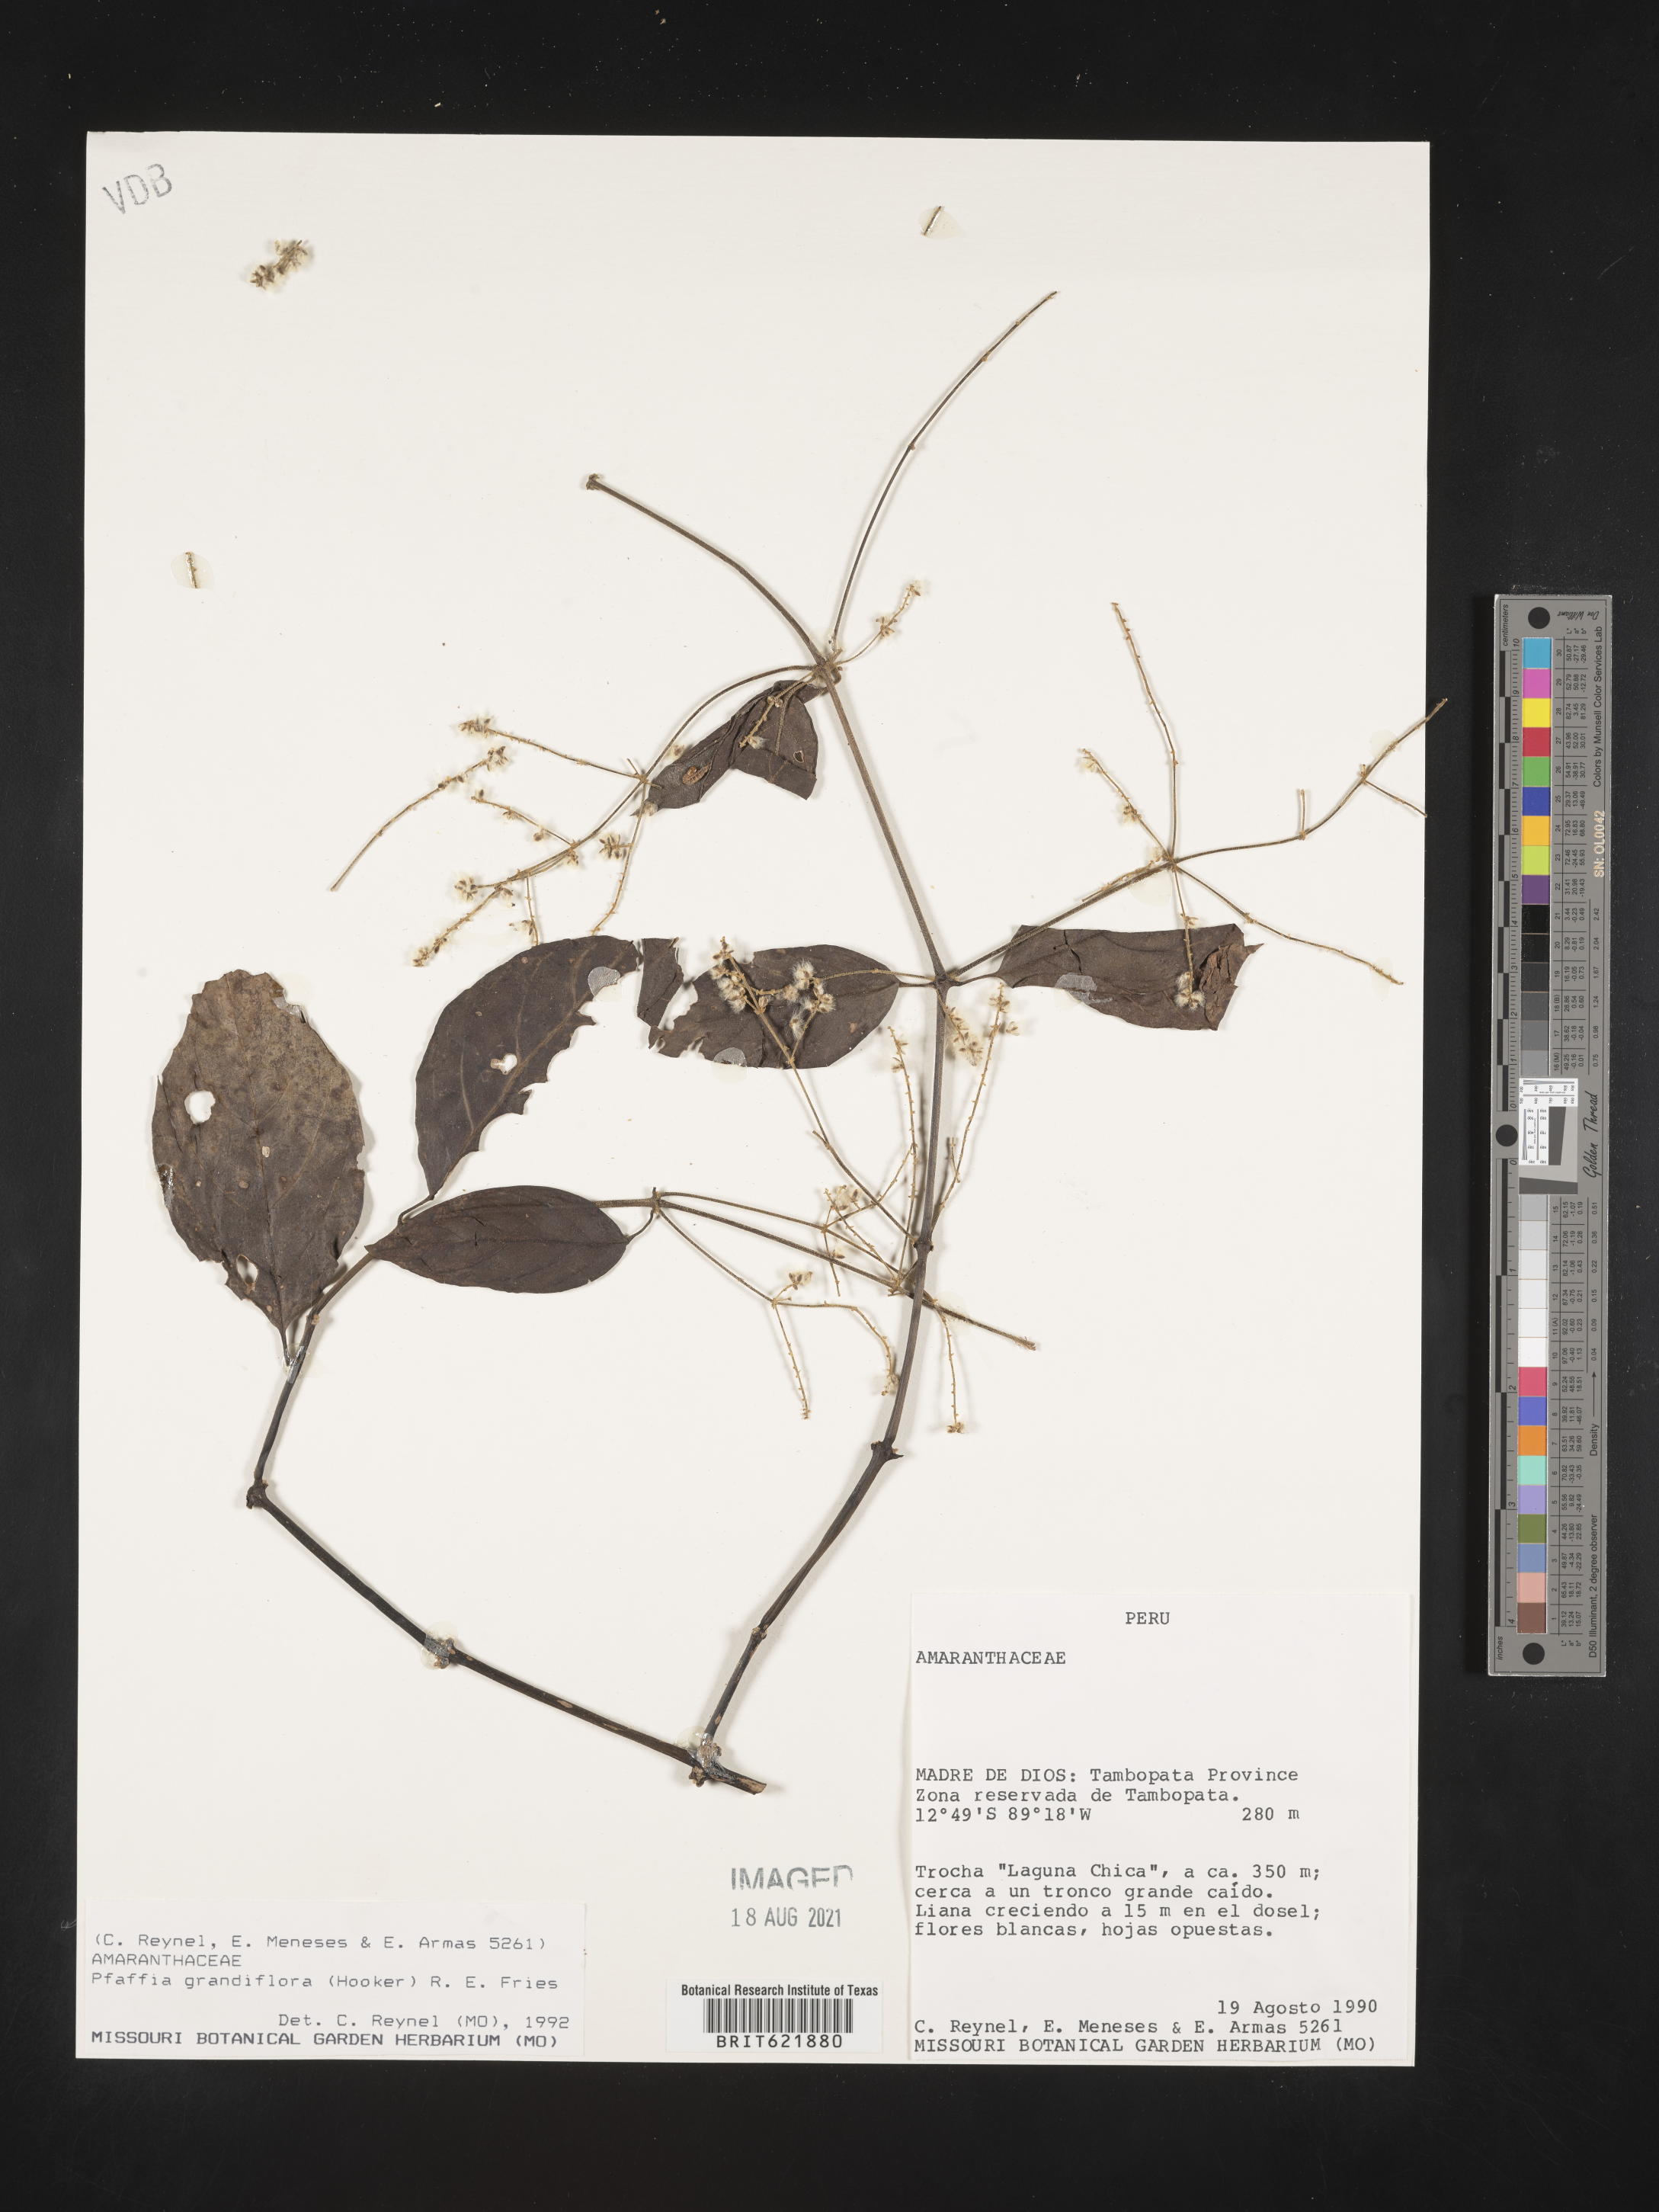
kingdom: Plantae
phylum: Tracheophyta
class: Magnoliopsida
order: Caryophyllales
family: Amaranthaceae
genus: Hebanthe
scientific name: Hebanthe grandiflora
